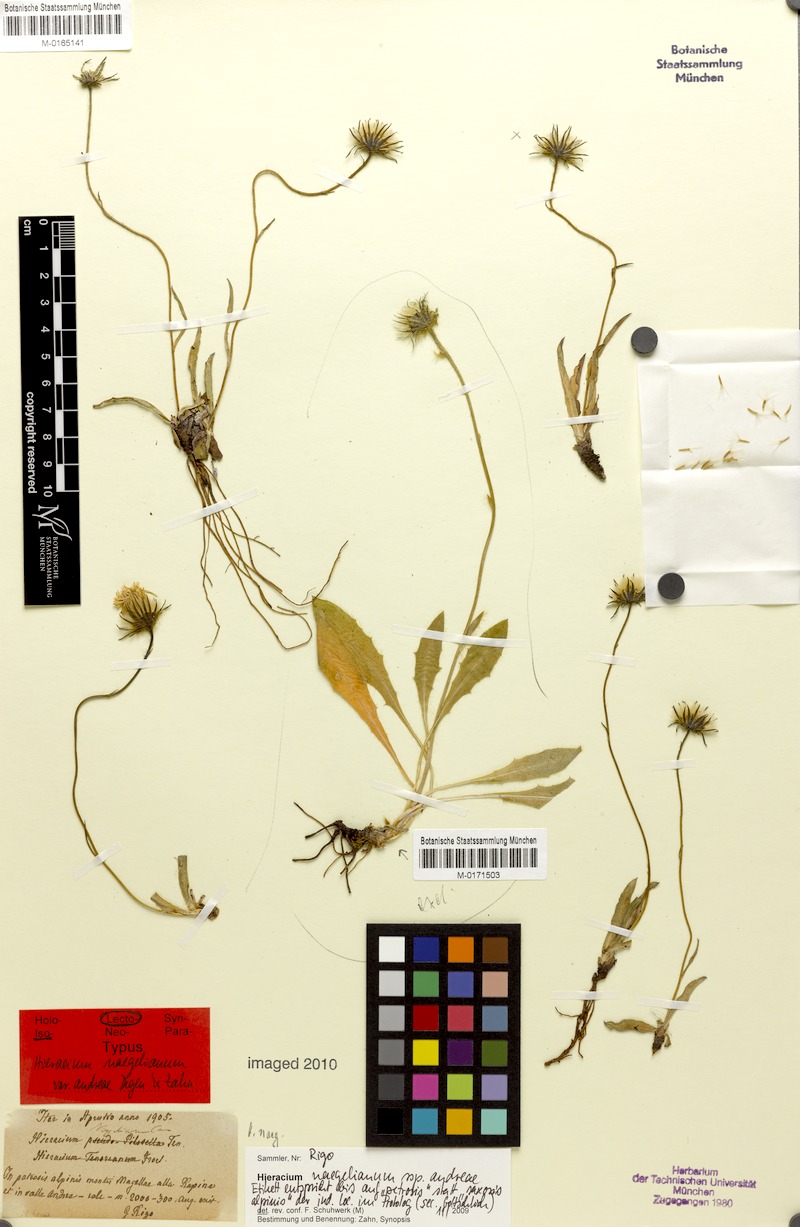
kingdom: Plantae
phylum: Tracheophyta
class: Magnoliopsida
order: Asterales
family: Asteraceae
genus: Hieracium
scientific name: Hieracium naegelianum
